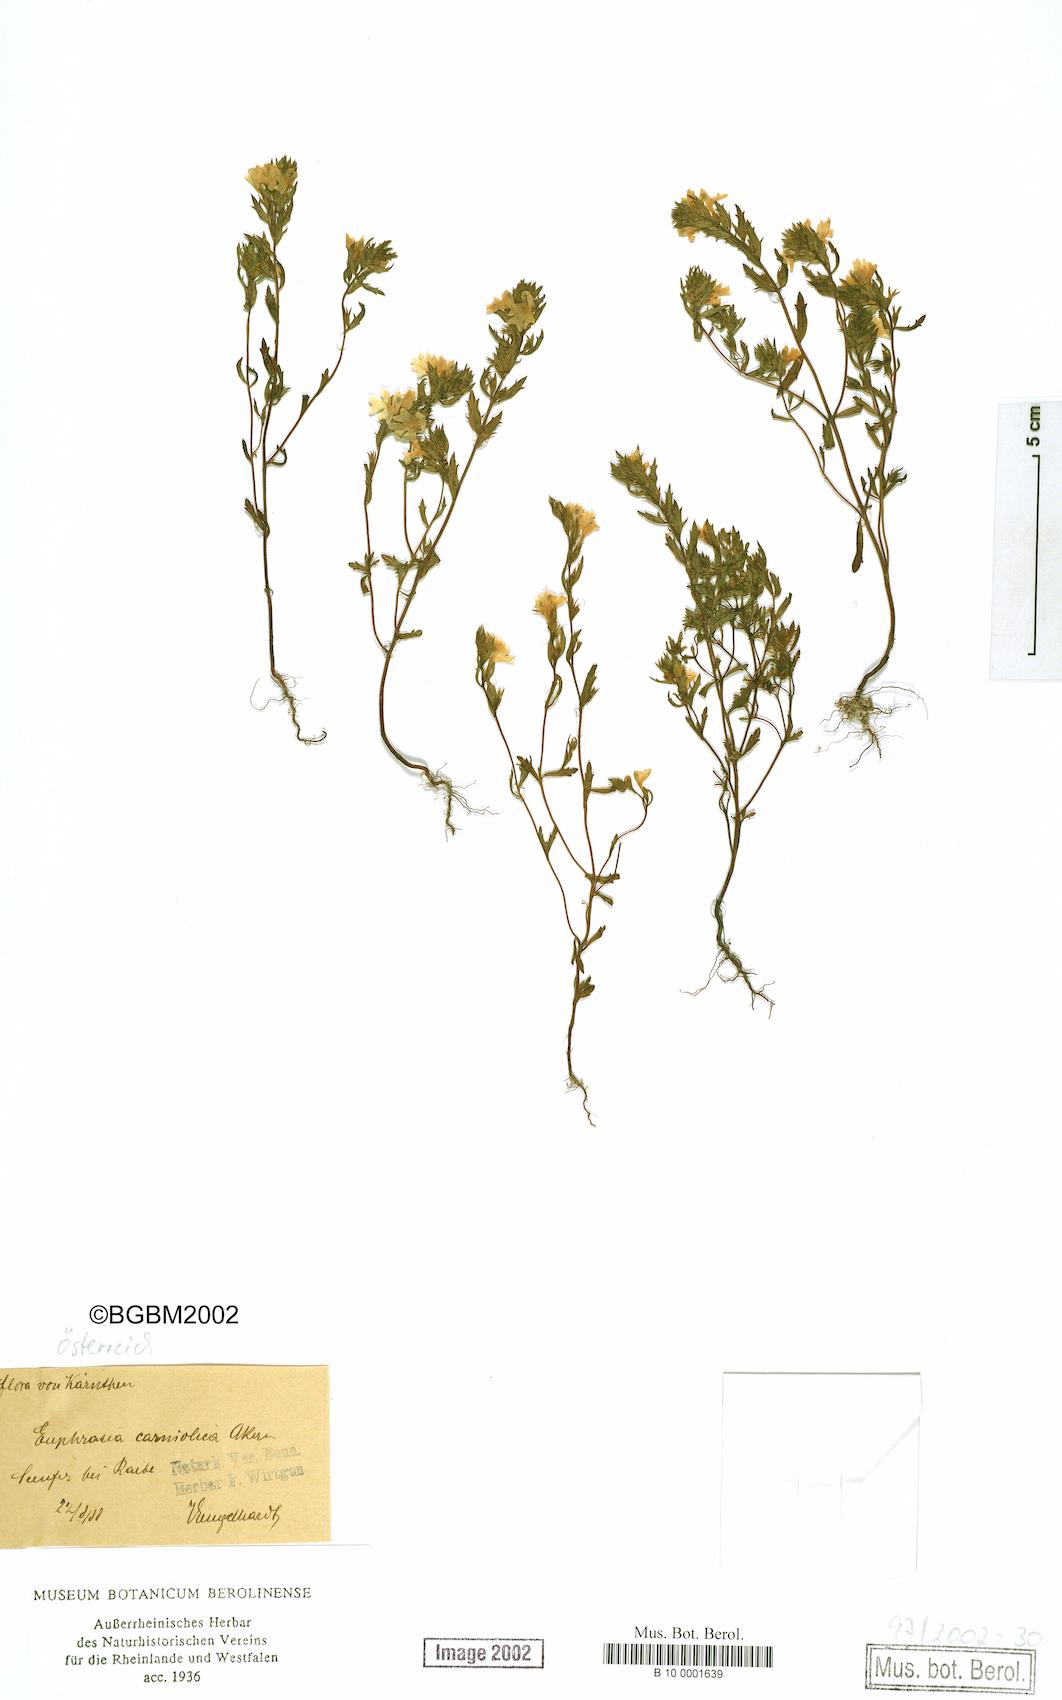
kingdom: Plantae
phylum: Tracheophyta
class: Magnoliopsida
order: Lamiales
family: Orobanchaceae
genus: Euphrasia
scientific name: Euphrasia officinalis
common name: Eyebright
